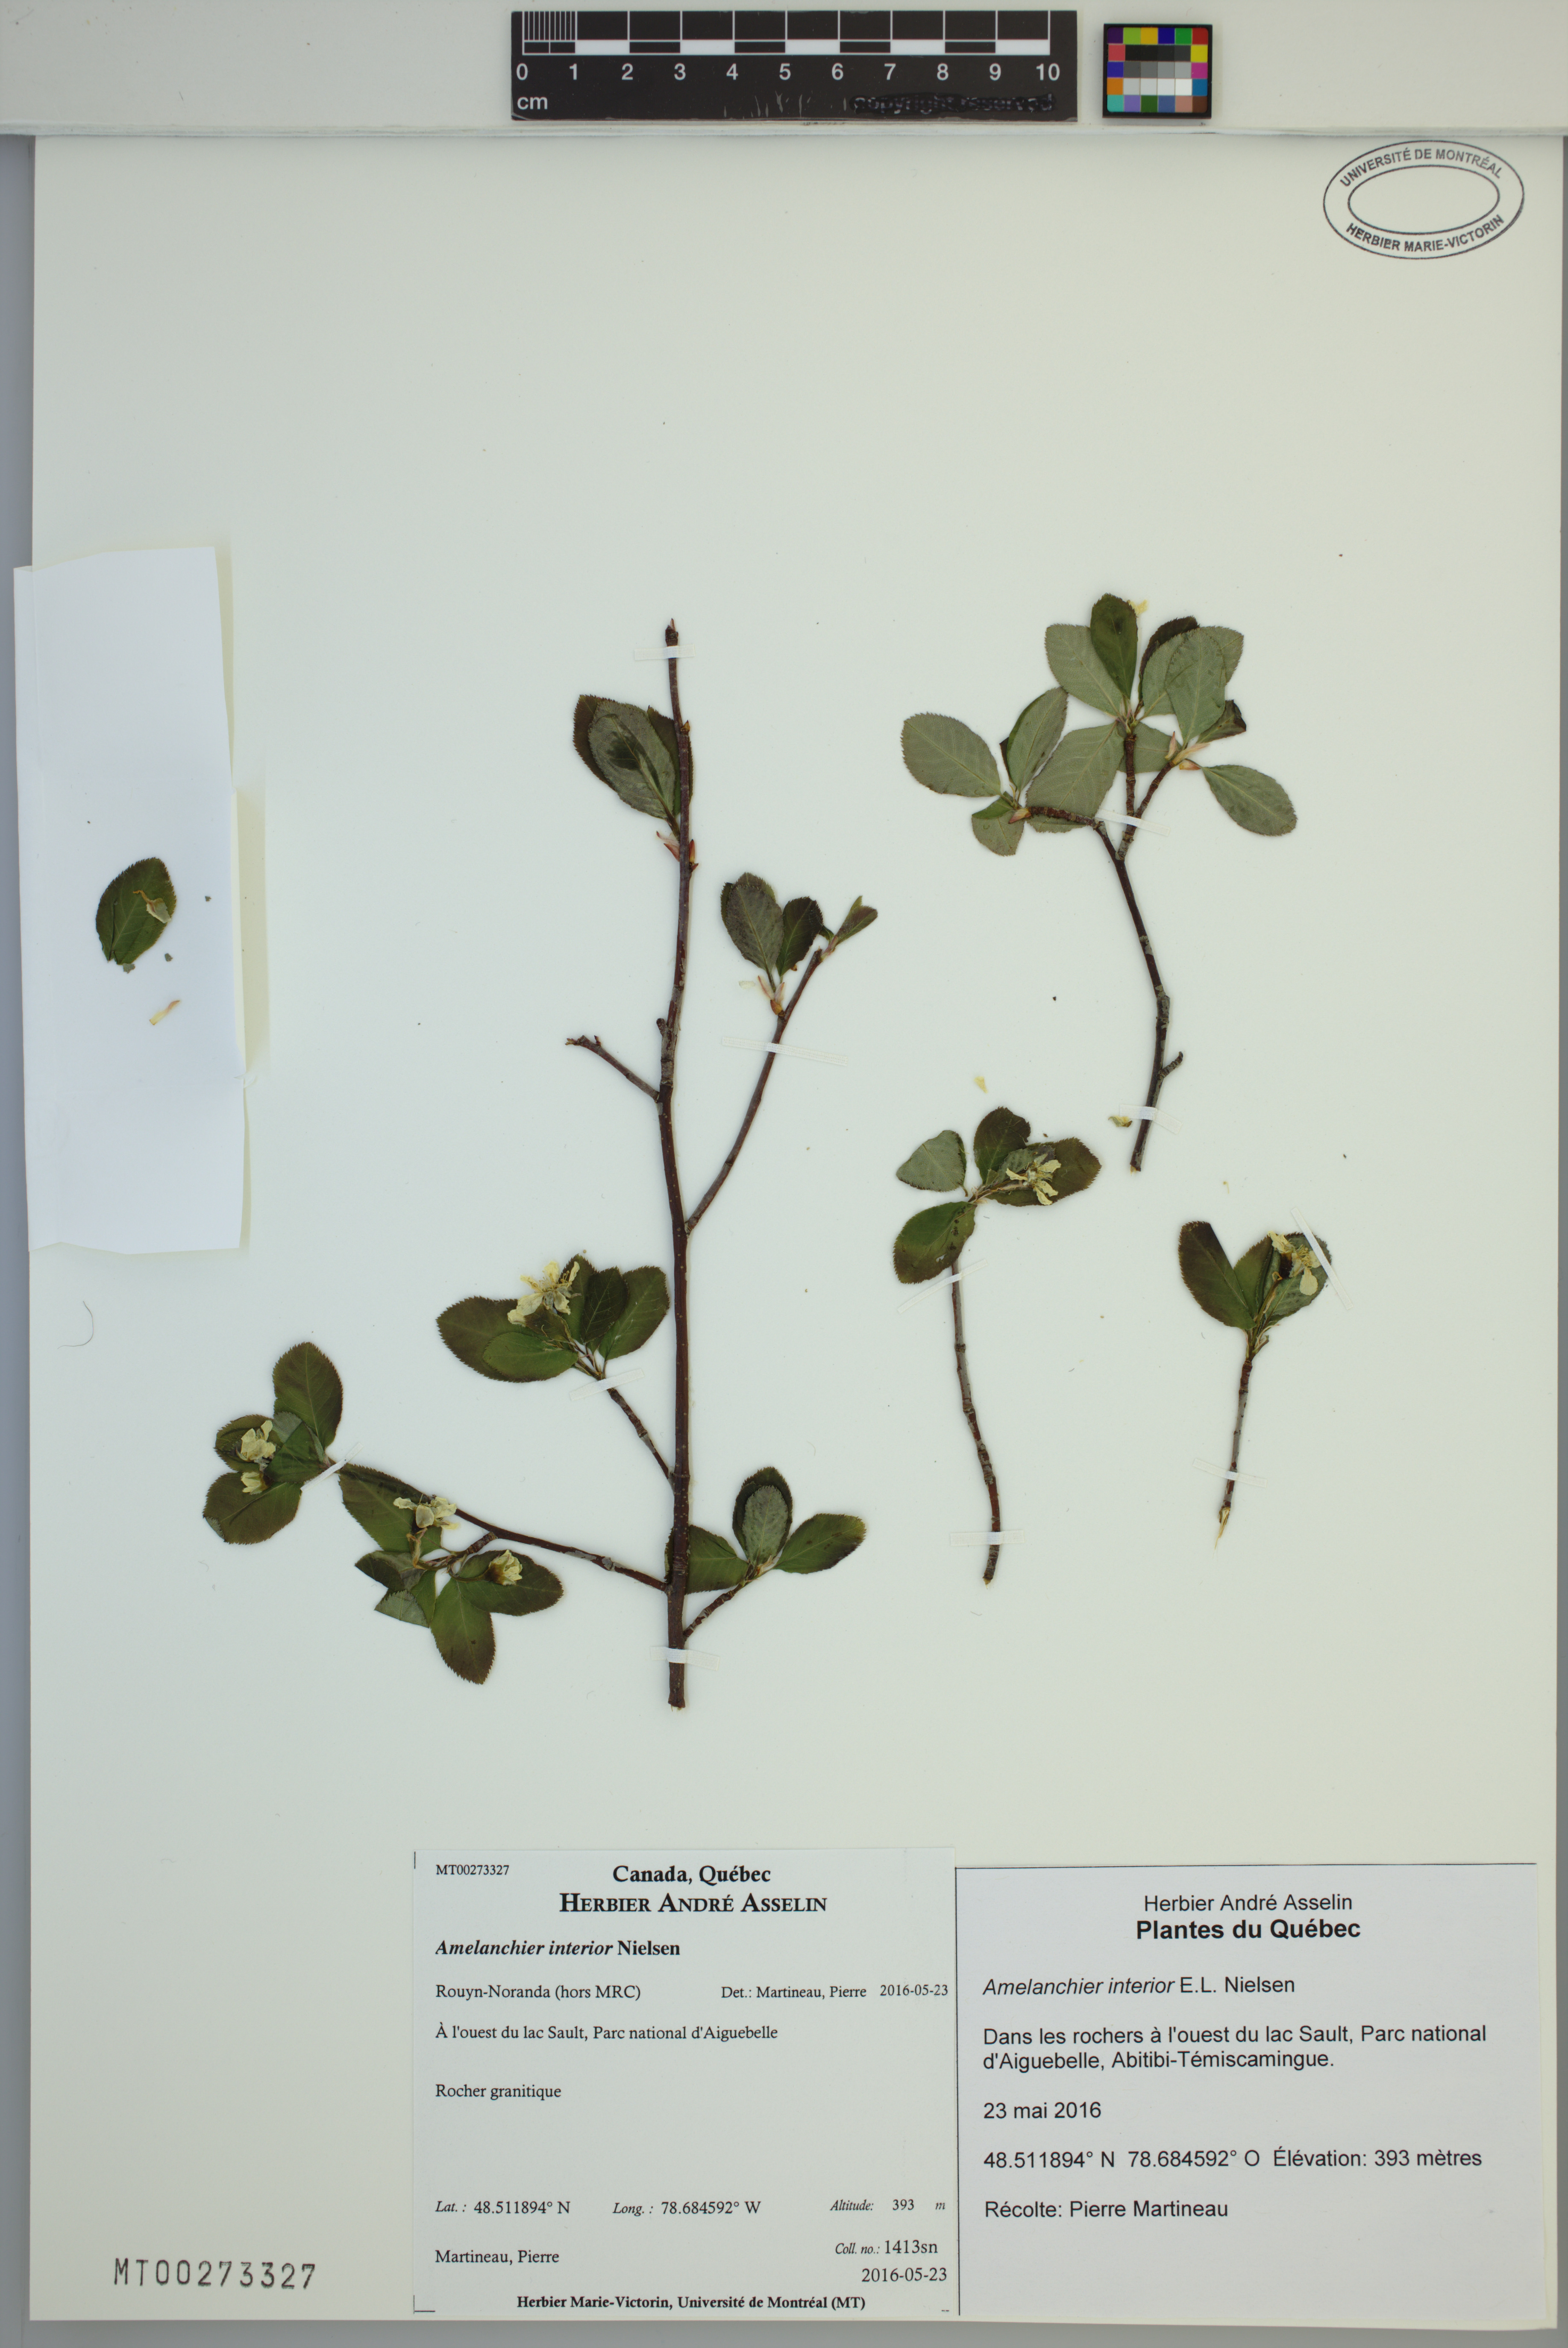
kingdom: Plantae
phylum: Tracheophyta
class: Magnoliopsida
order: Rosales
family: Rosaceae
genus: Amelanchier
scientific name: Amelanchier interior
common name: Inland serviceberry
